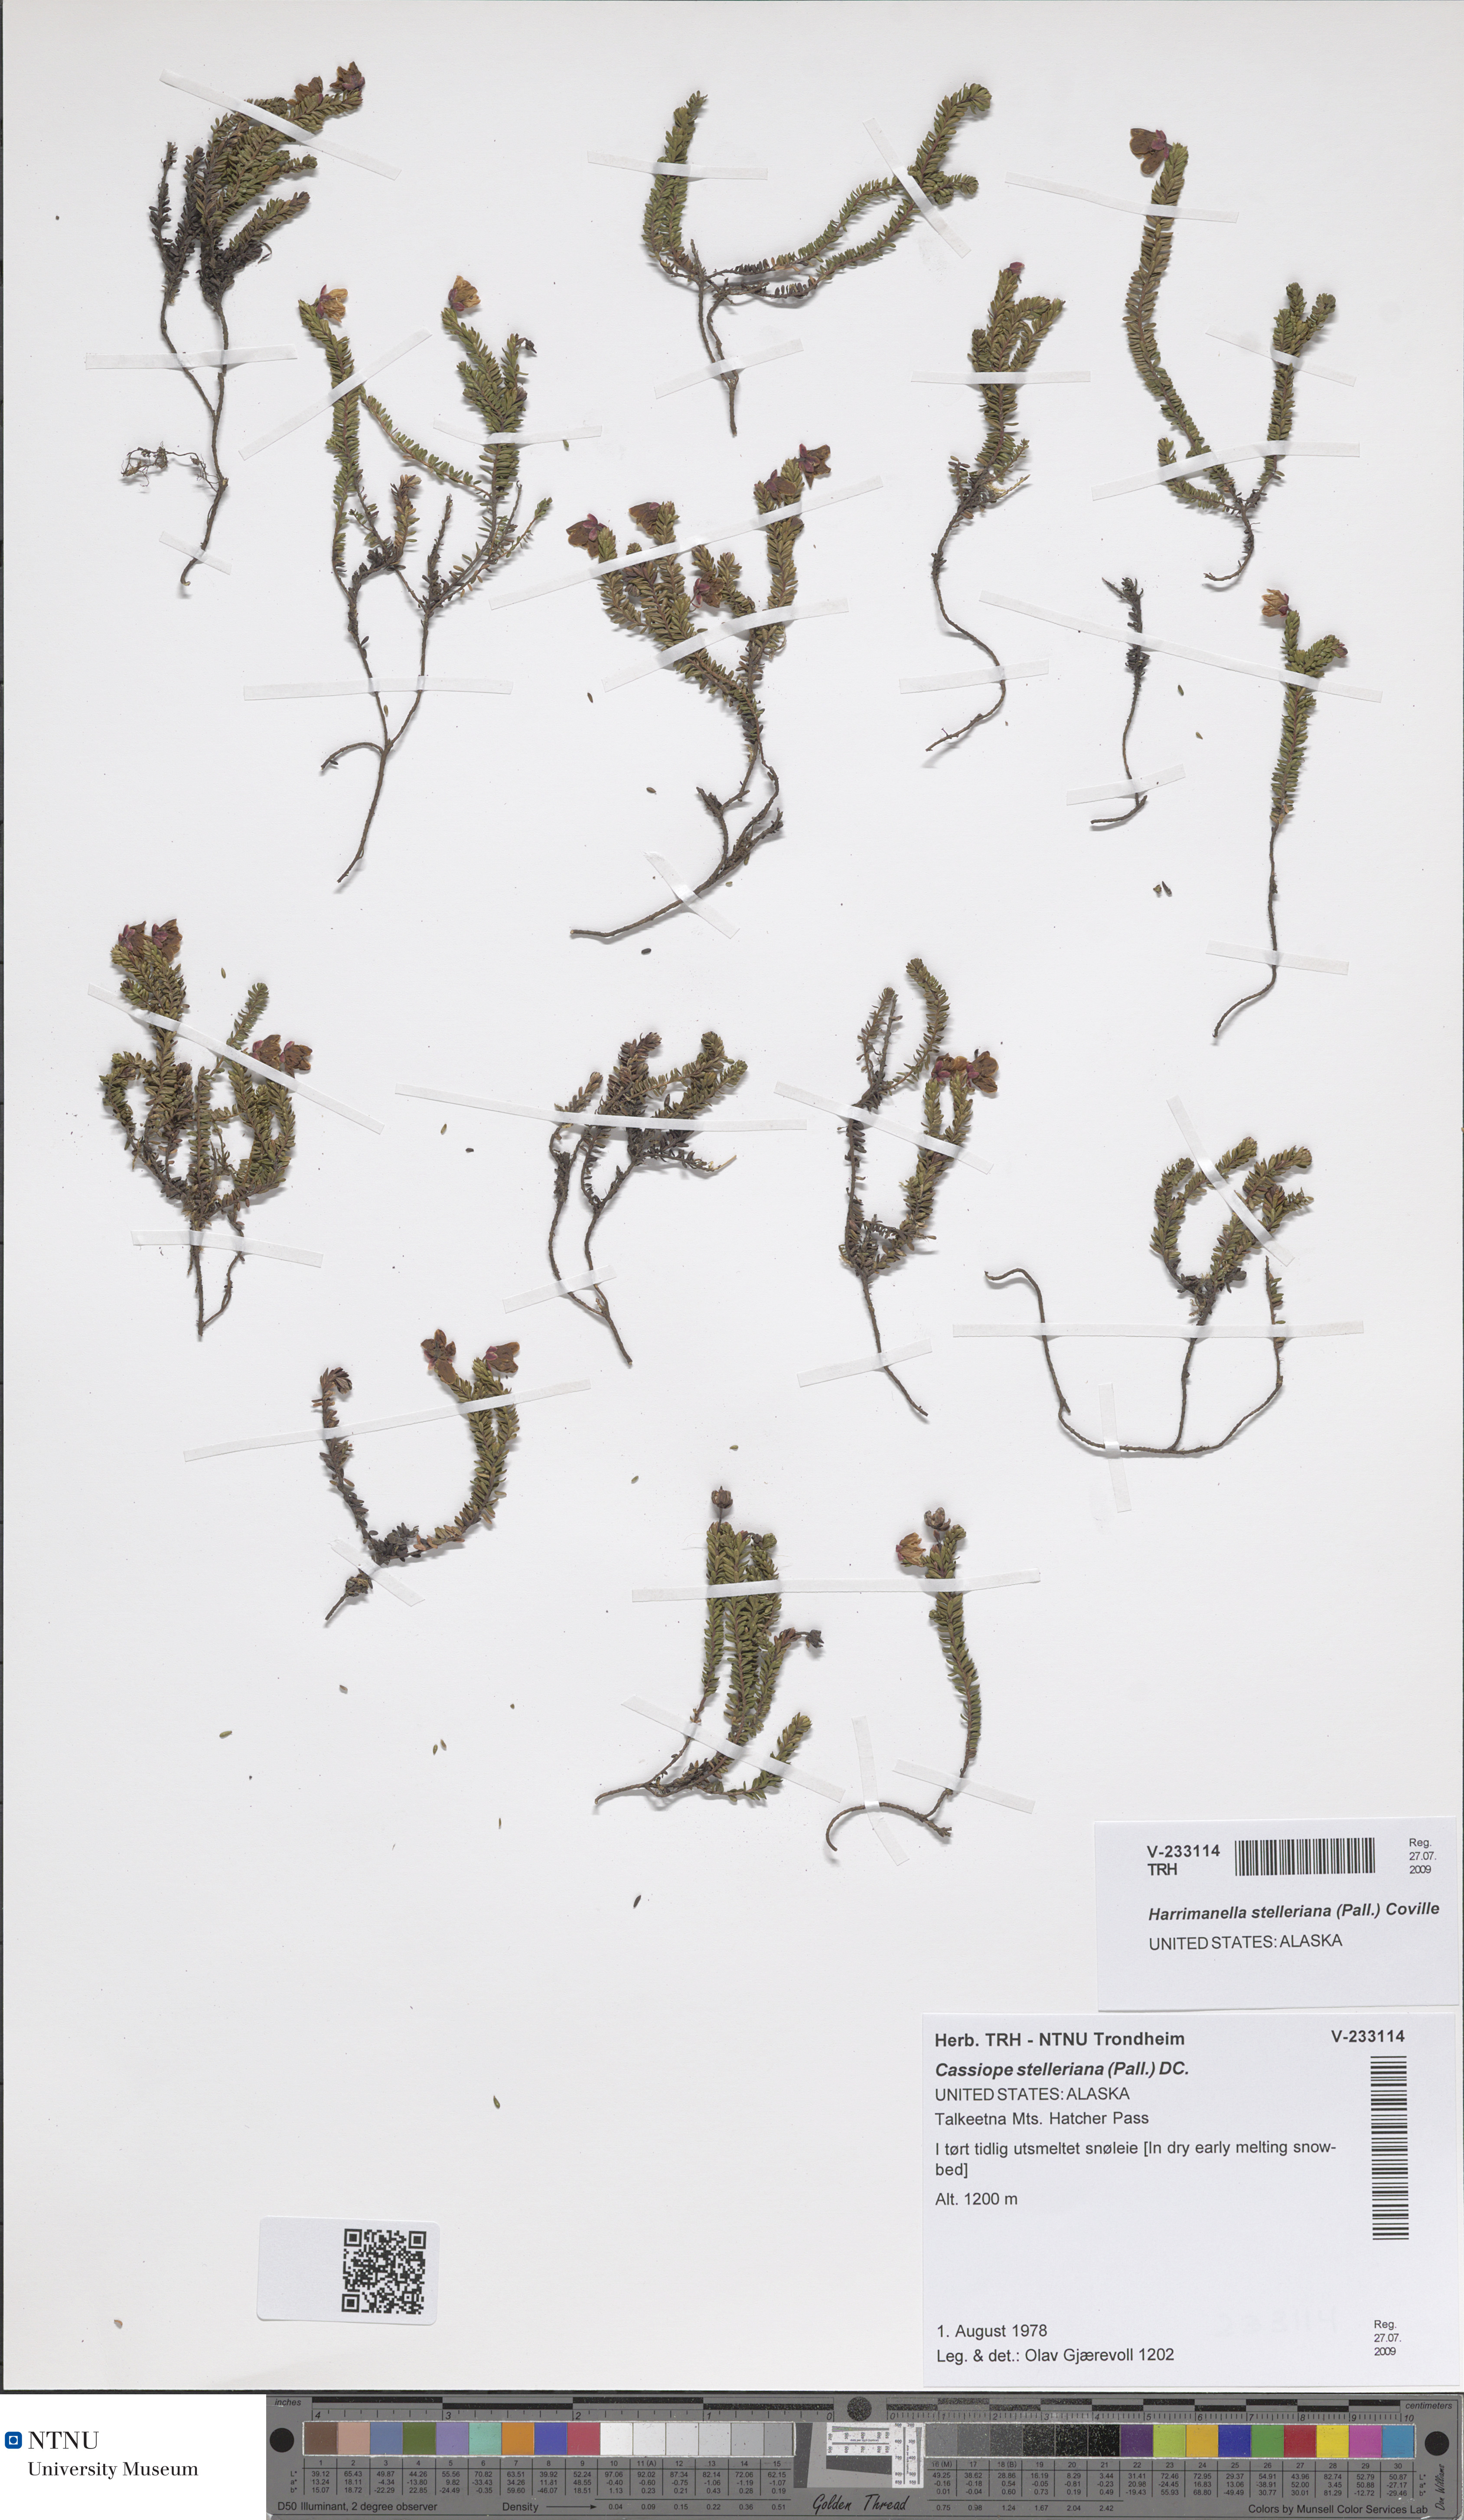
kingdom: Plantae
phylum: Tracheophyta
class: Magnoliopsida
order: Ericales
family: Ericaceae
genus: Harrimanella
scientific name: Harrimanella stelleriana
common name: Alaska bell heather
